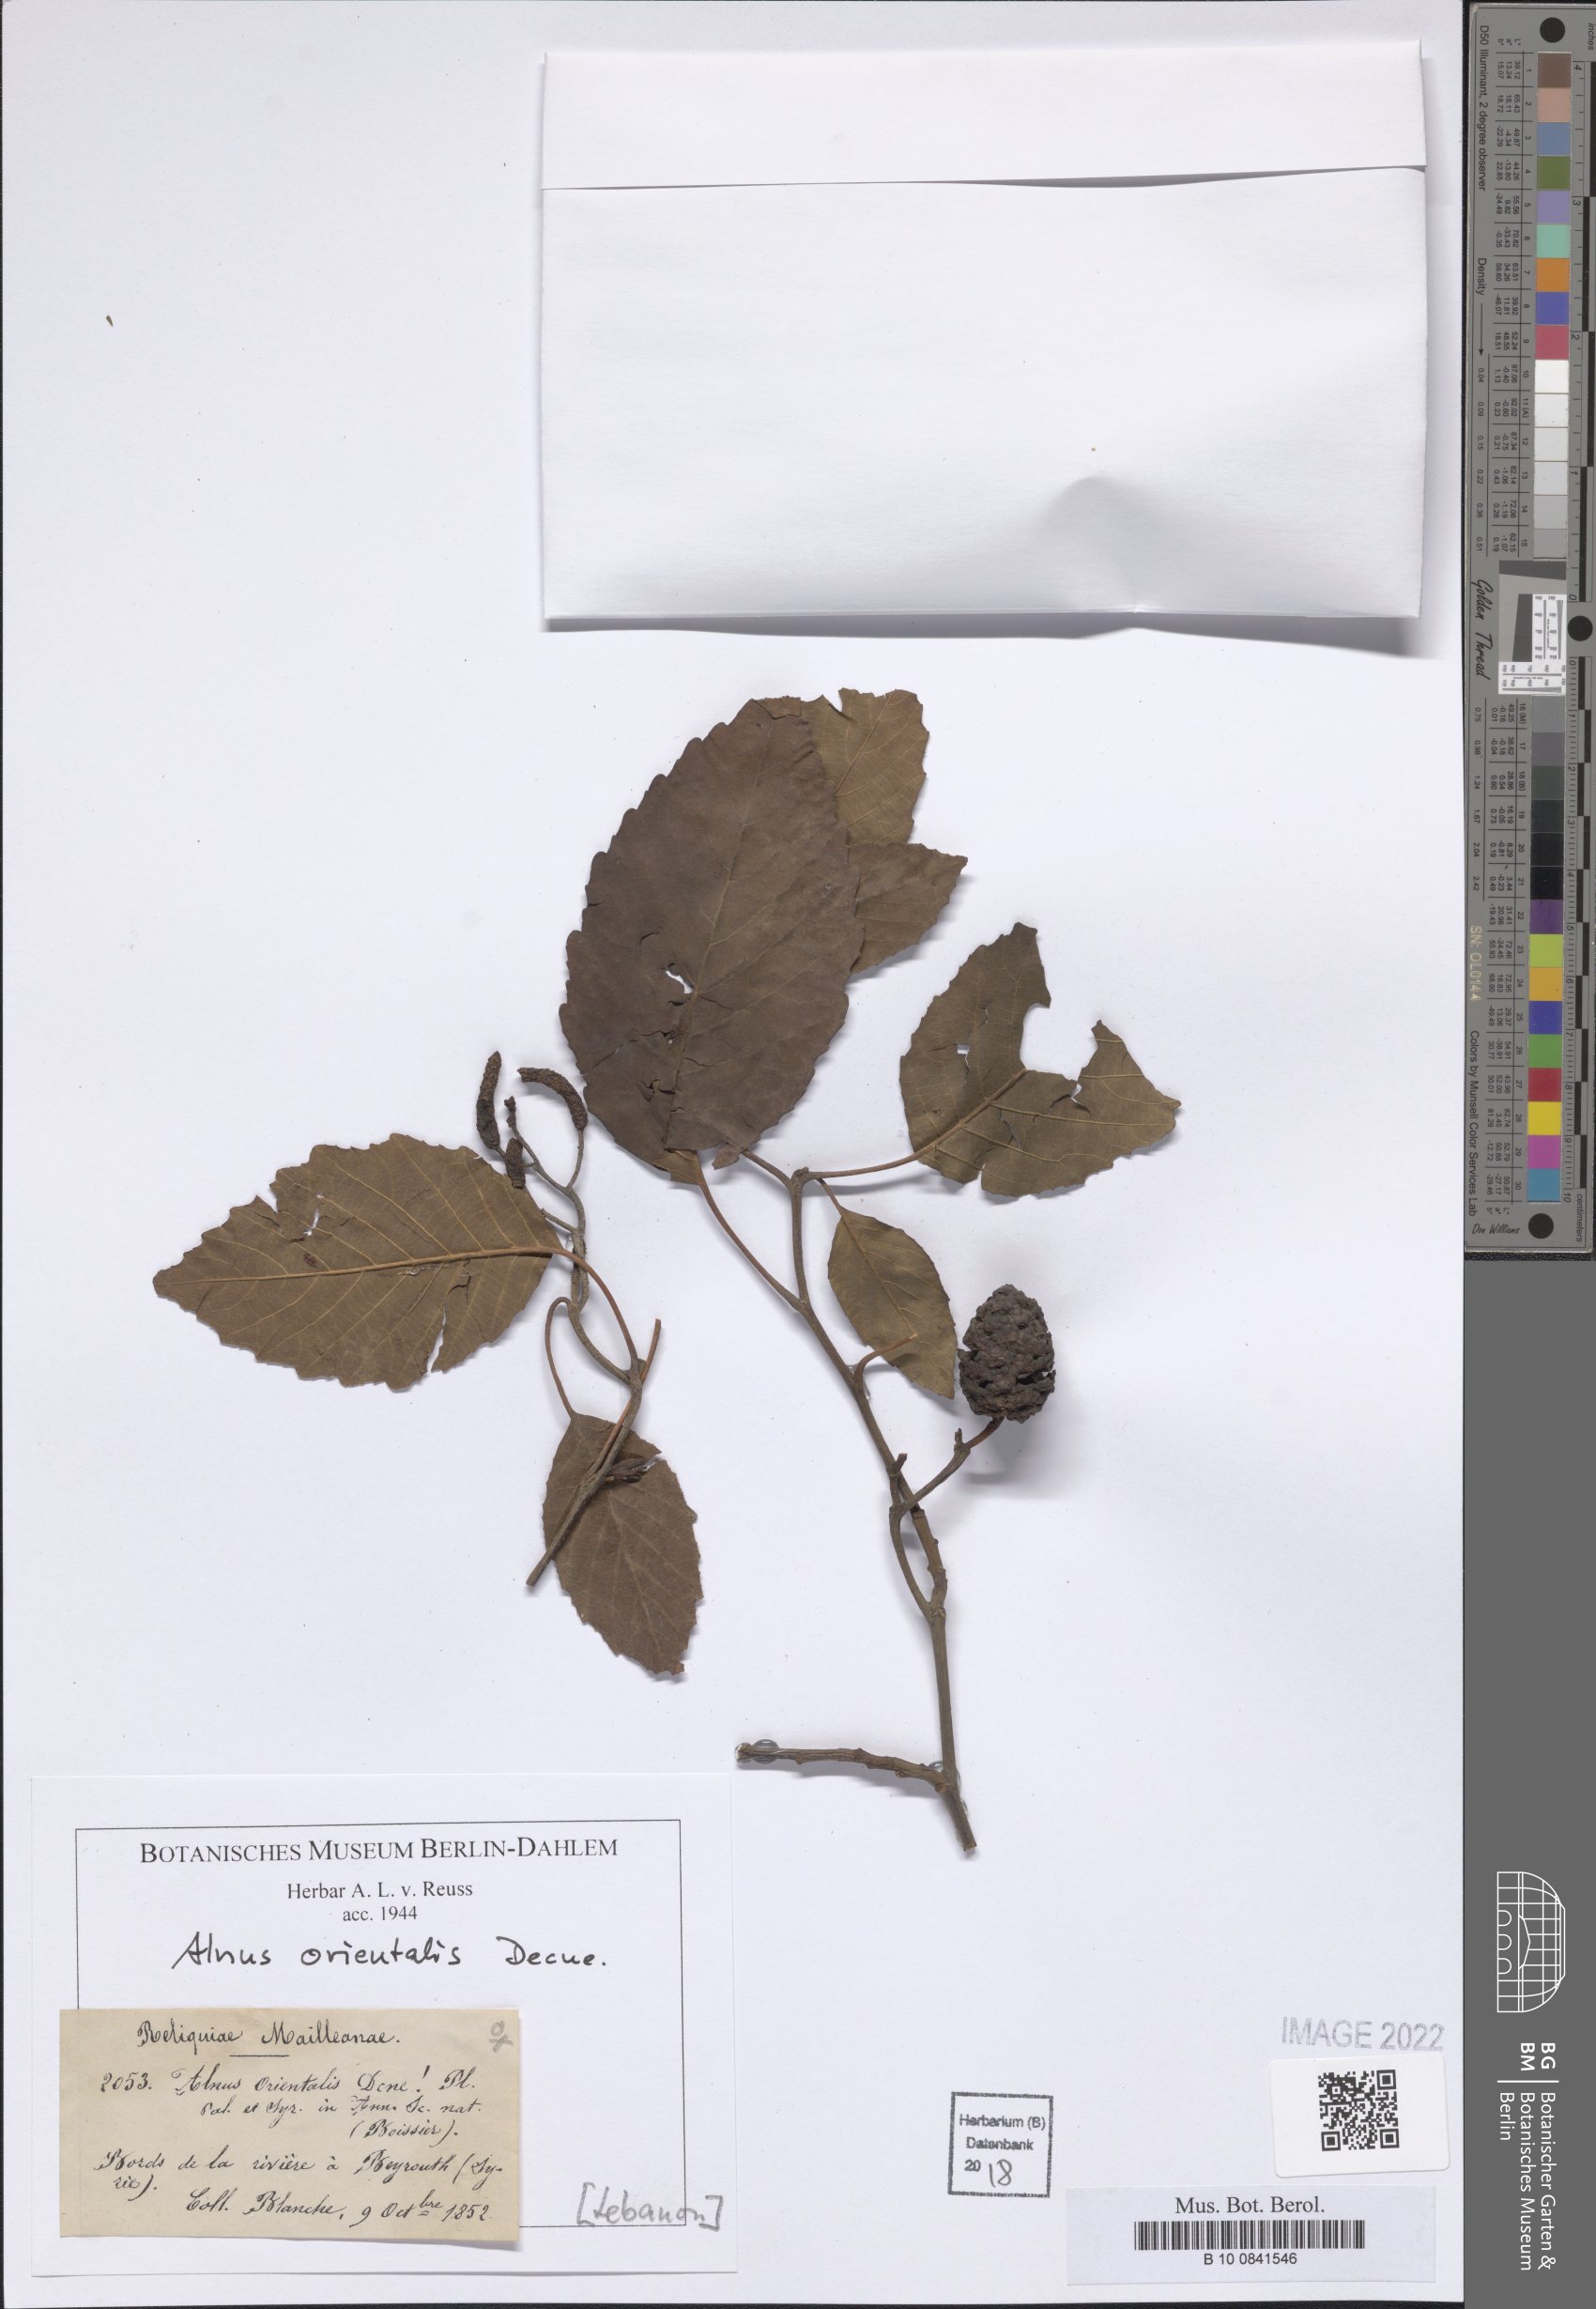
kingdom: Plantae
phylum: Tracheophyta
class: Magnoliopsida
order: Fagales
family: Betulaceae
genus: Alnus
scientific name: Alnus orientalis
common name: Oriental alder
